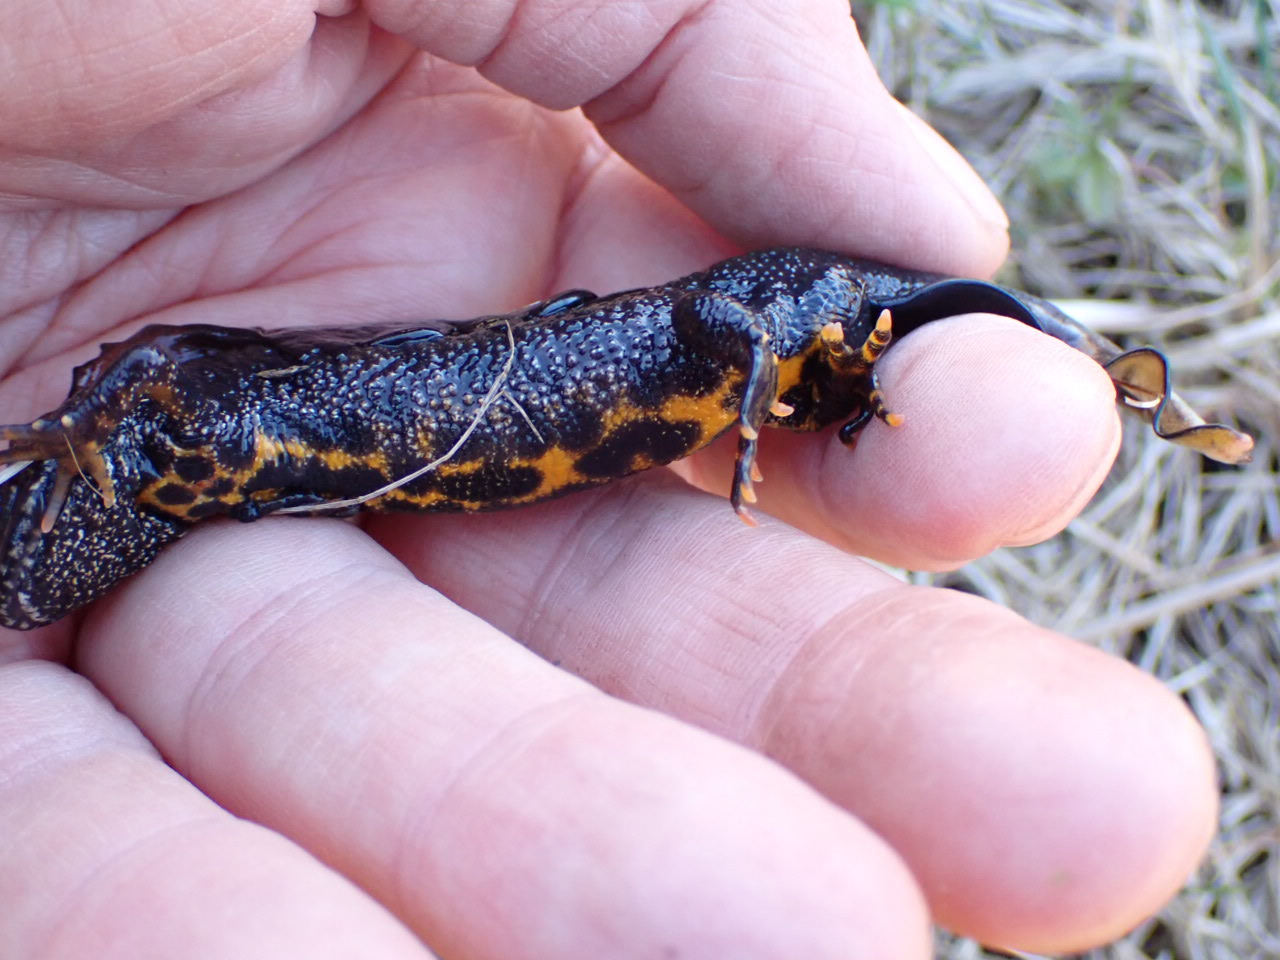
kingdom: Animalia
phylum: Chordata
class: Amphibia
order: Caudata
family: Salamandridae
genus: Triturus
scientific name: Triturus cristatus
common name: Stor vandsalamander
